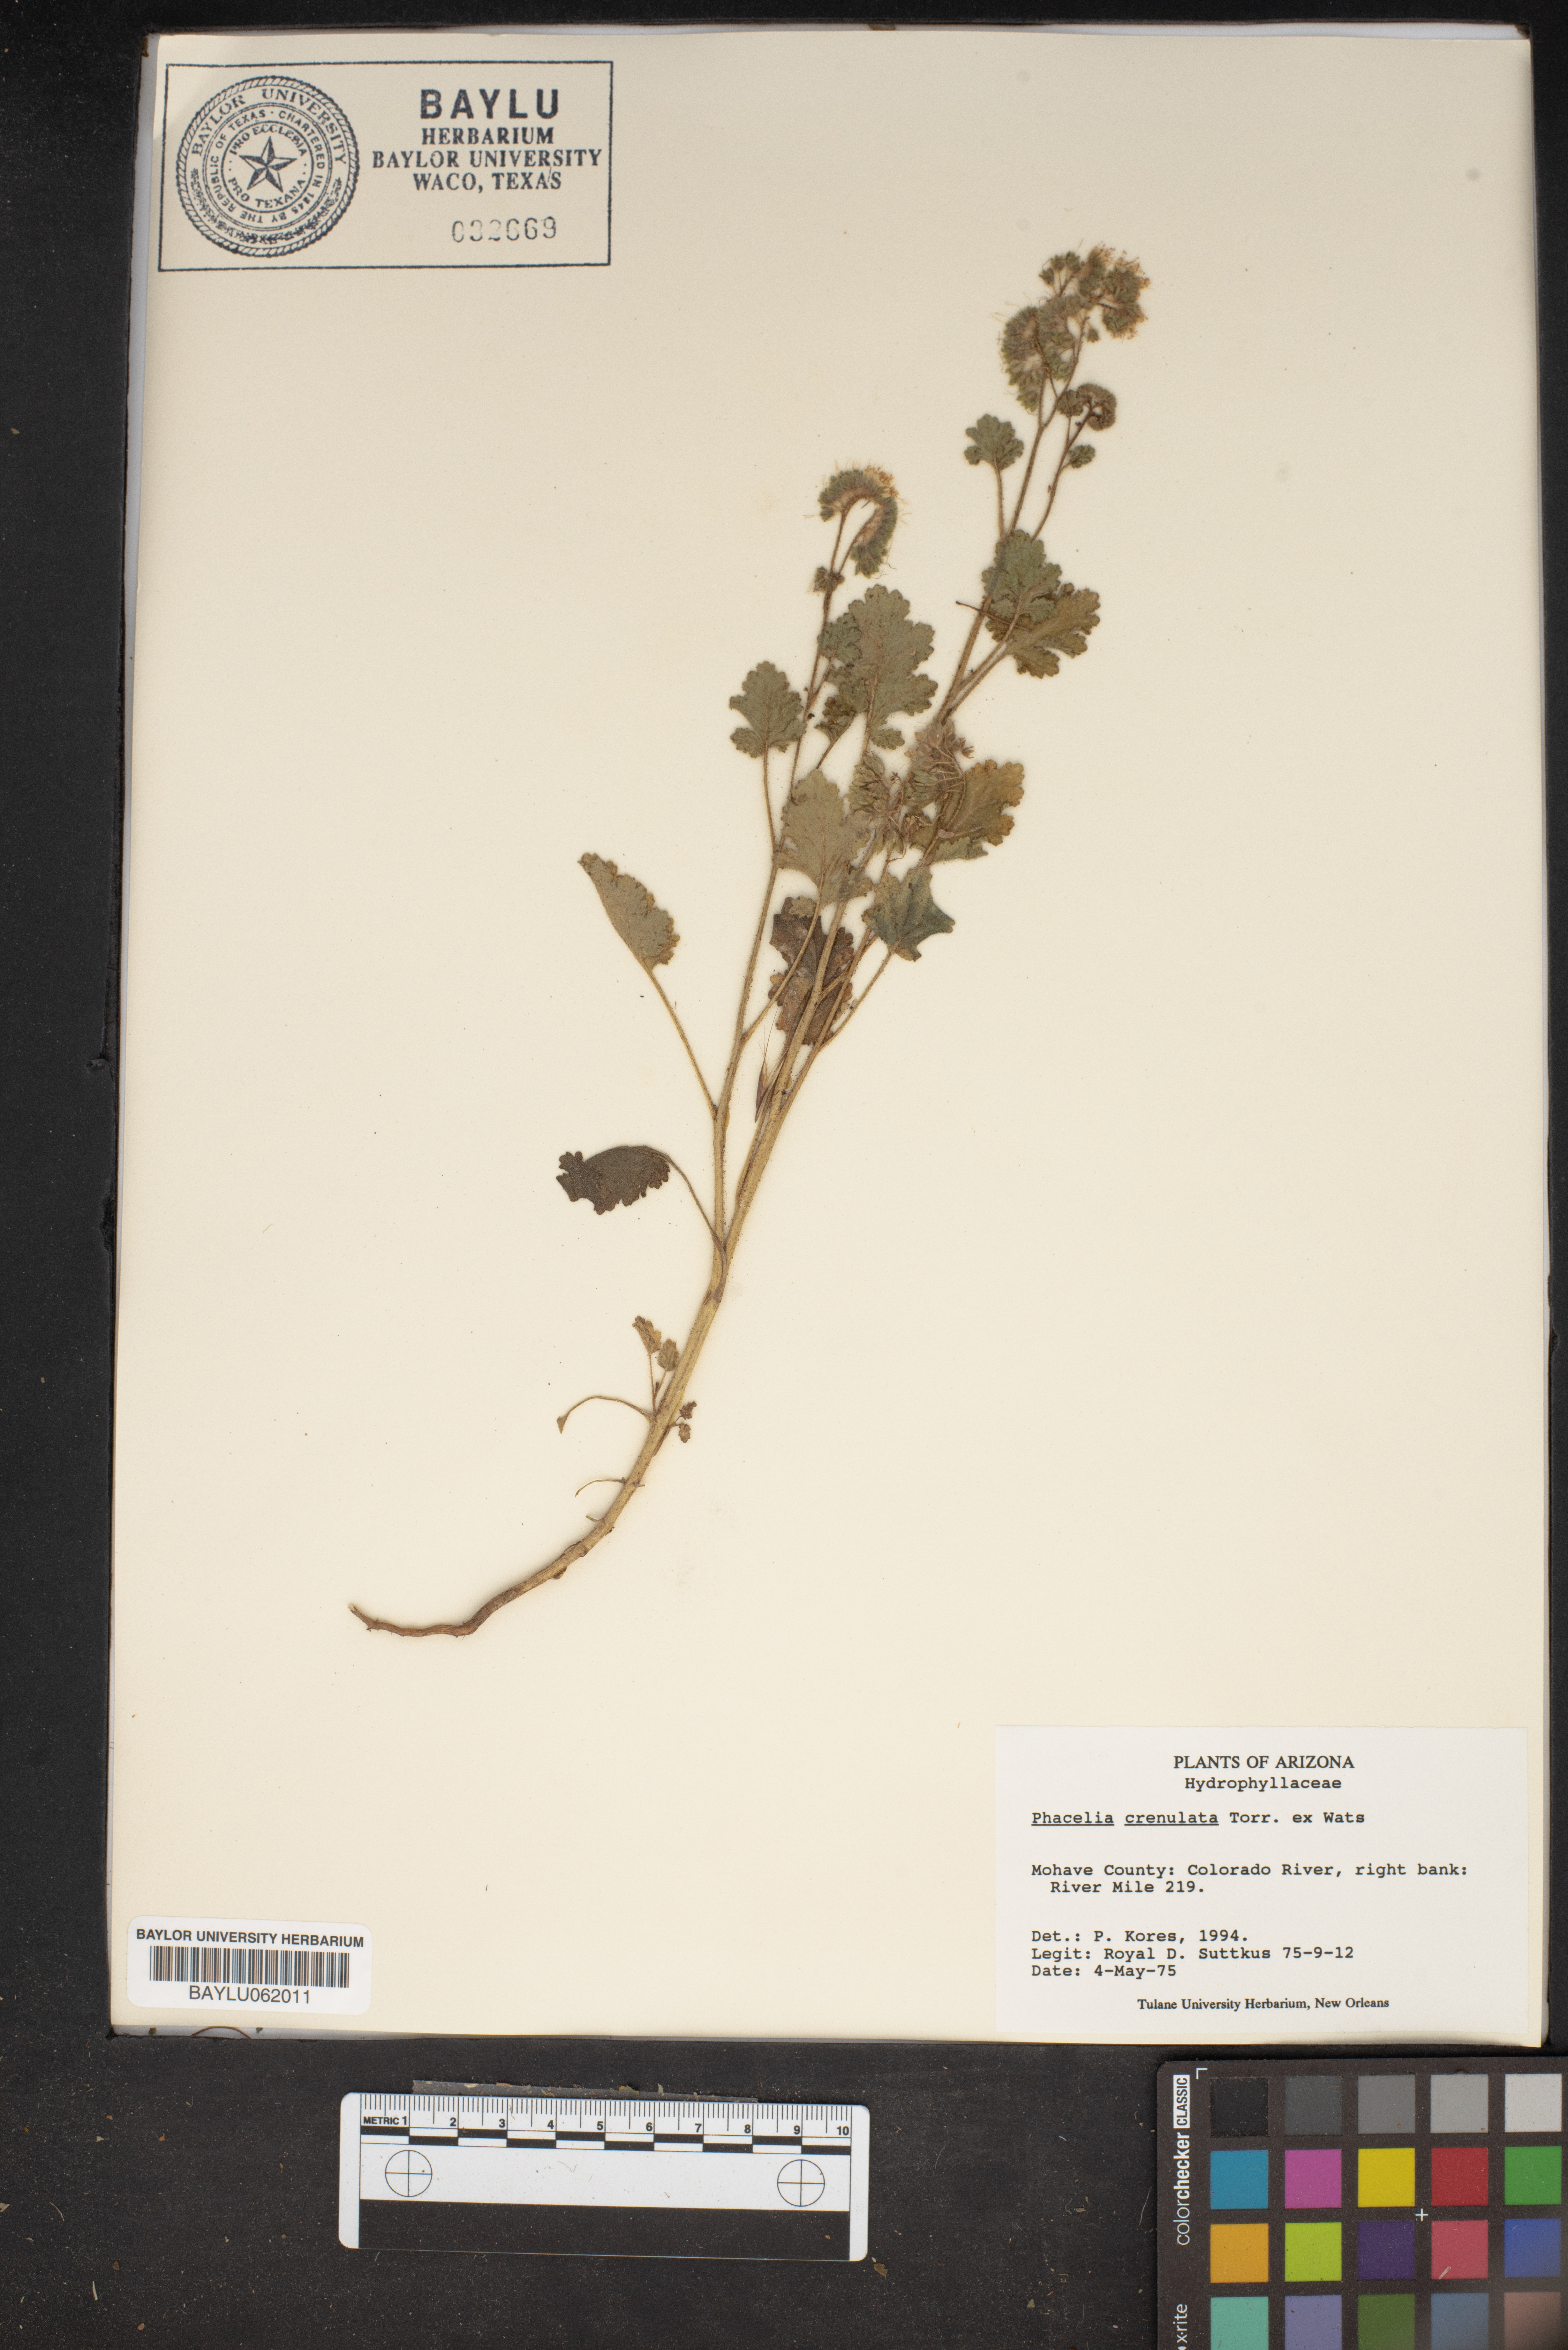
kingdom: Plantae
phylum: Tracheophyta
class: Magnoliopsida
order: Boraginales
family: Hydrophyllaceae
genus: Phacelia
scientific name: Phacelia crenulata
